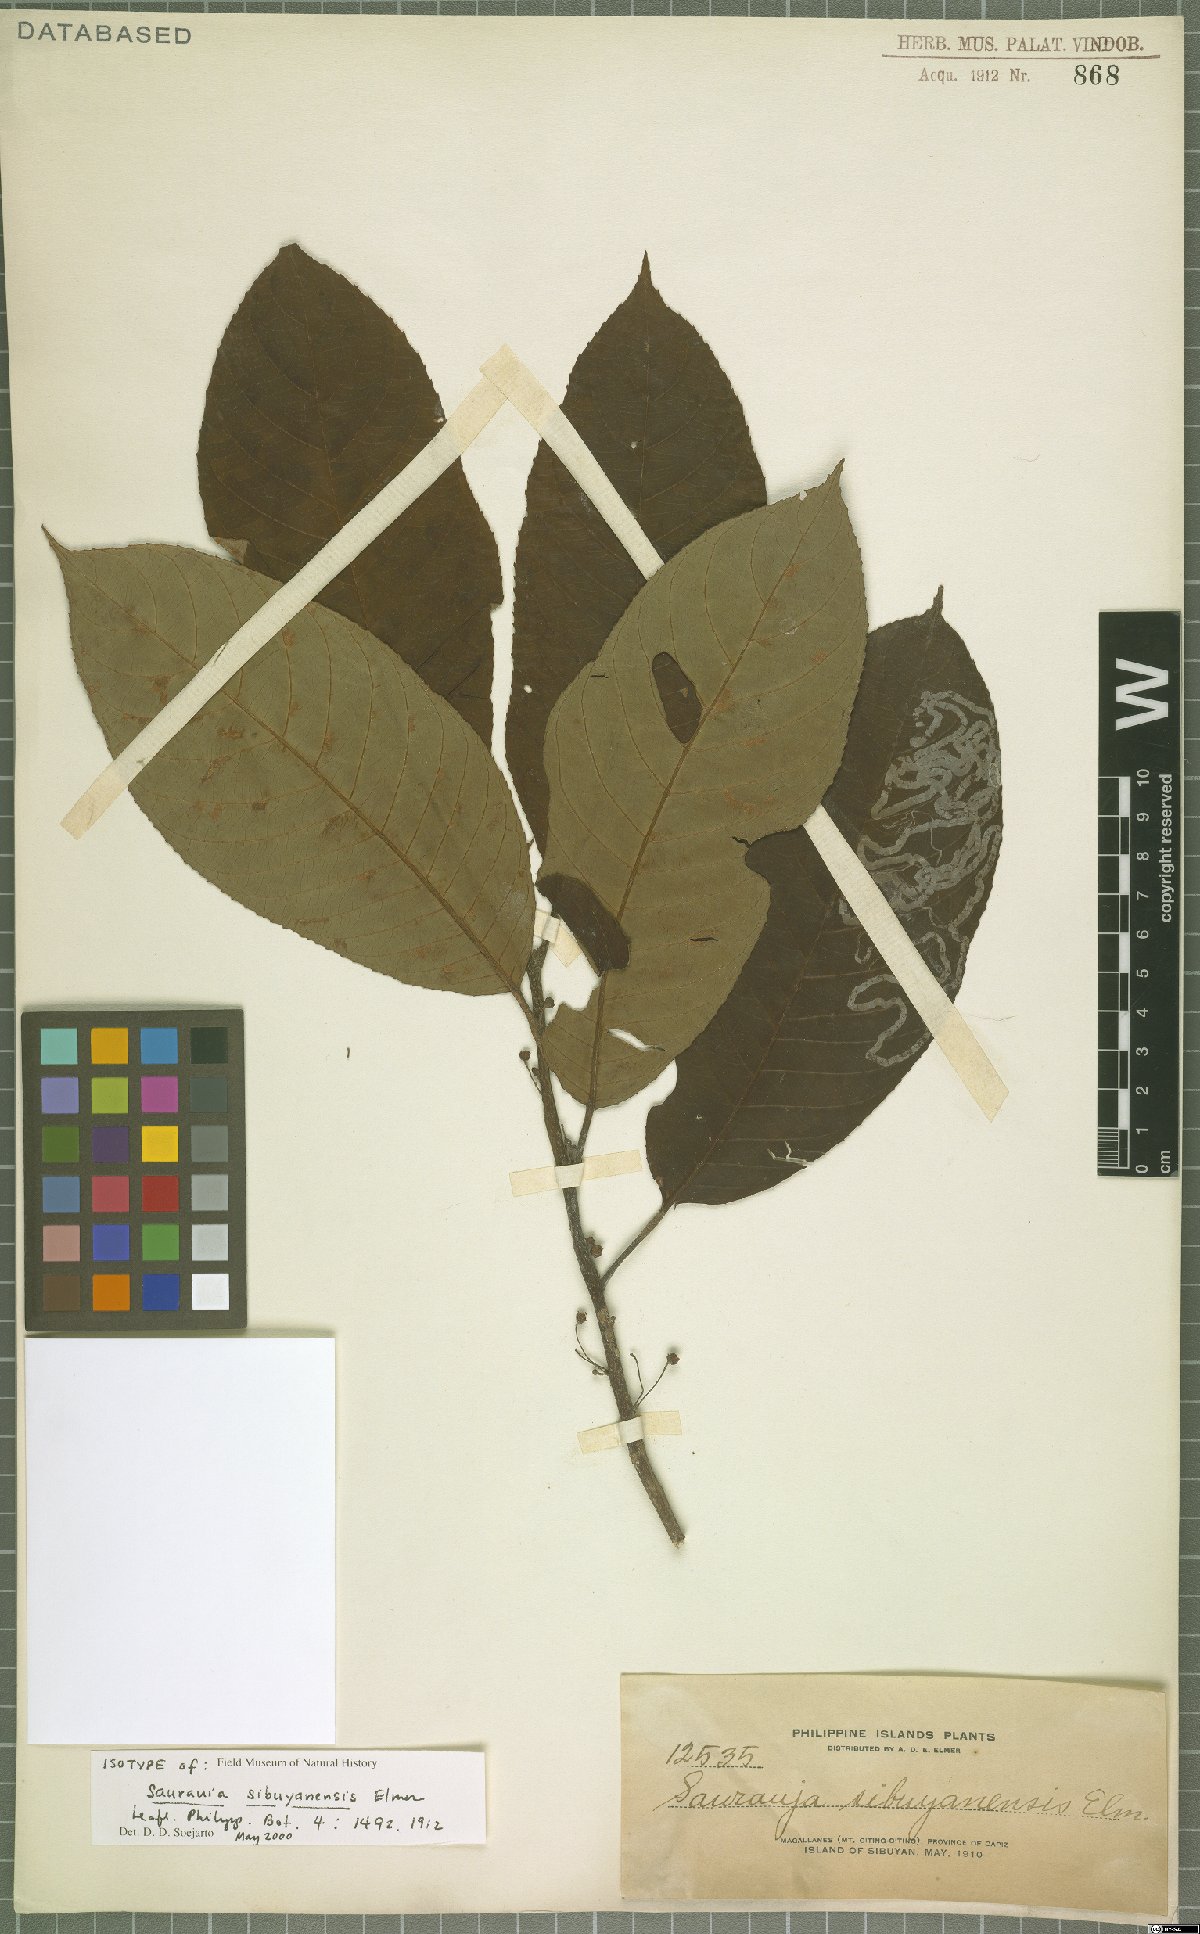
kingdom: Plantae
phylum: Tracheophyta
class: Magnoliopsida
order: Ericales
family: Actinidiaceae
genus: Saurauia
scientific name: Saurauia sibuyanensis
